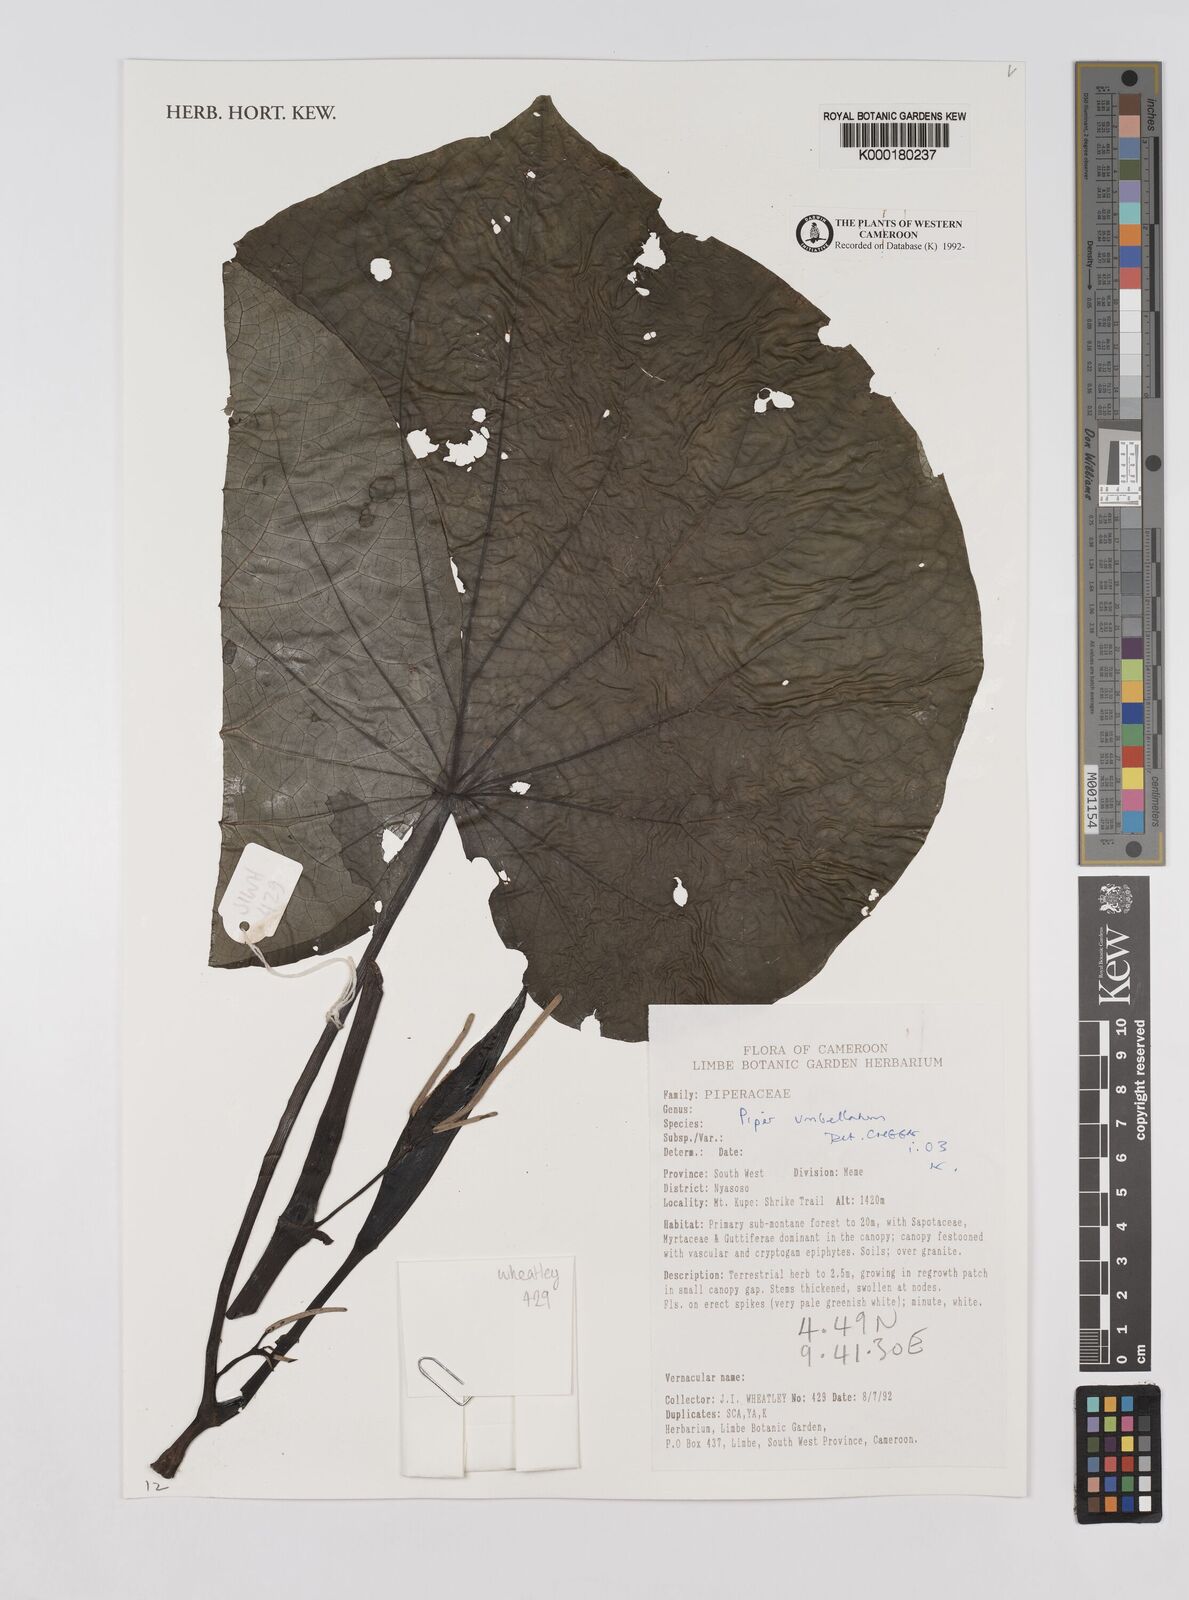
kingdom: Plantae
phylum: Tracheophyta
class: Magnoliopsida
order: Piperales
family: Piperaceae
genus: Piper
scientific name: Piper umbellatum
